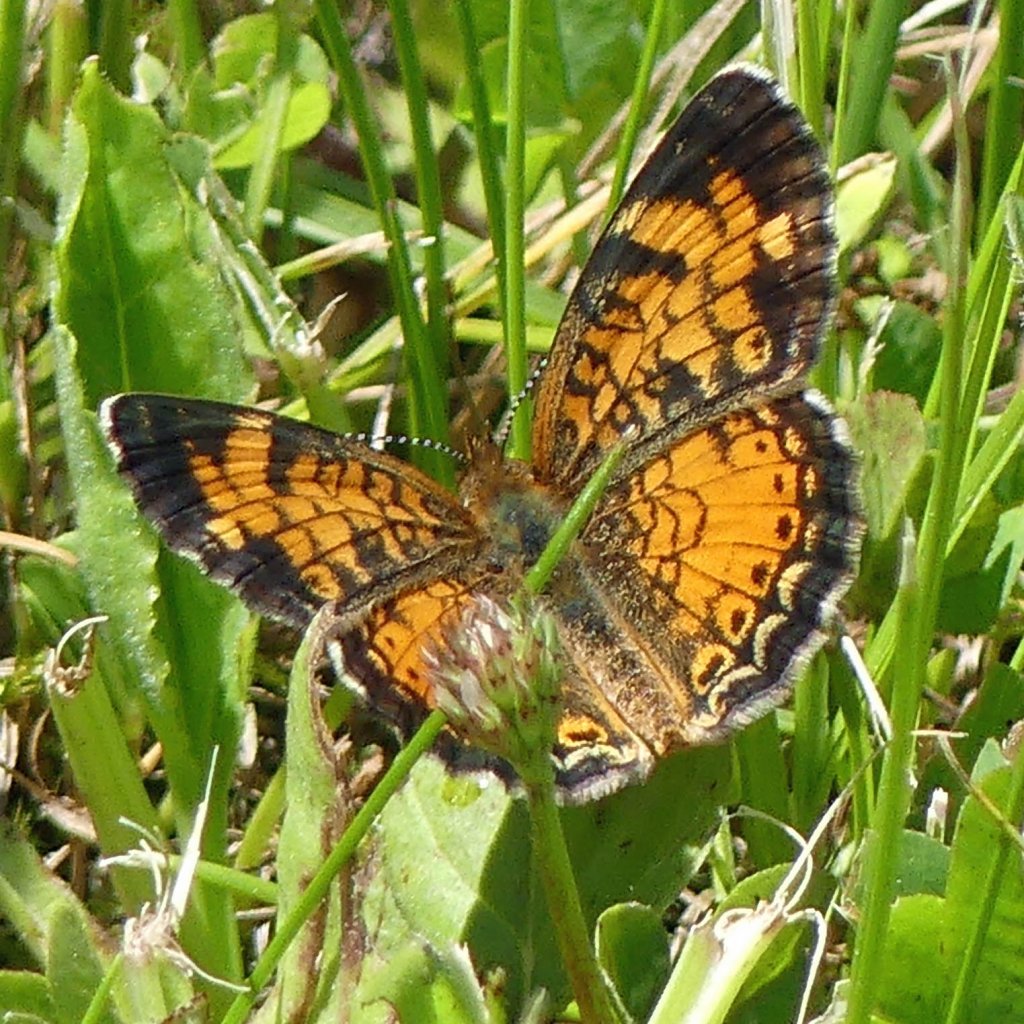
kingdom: Animalia
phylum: Arthropoda
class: Insecta
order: Lepidoptera
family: Nymphalidae
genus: Phyciodes
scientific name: Phyciodes tharos
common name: Pearl Crescent
